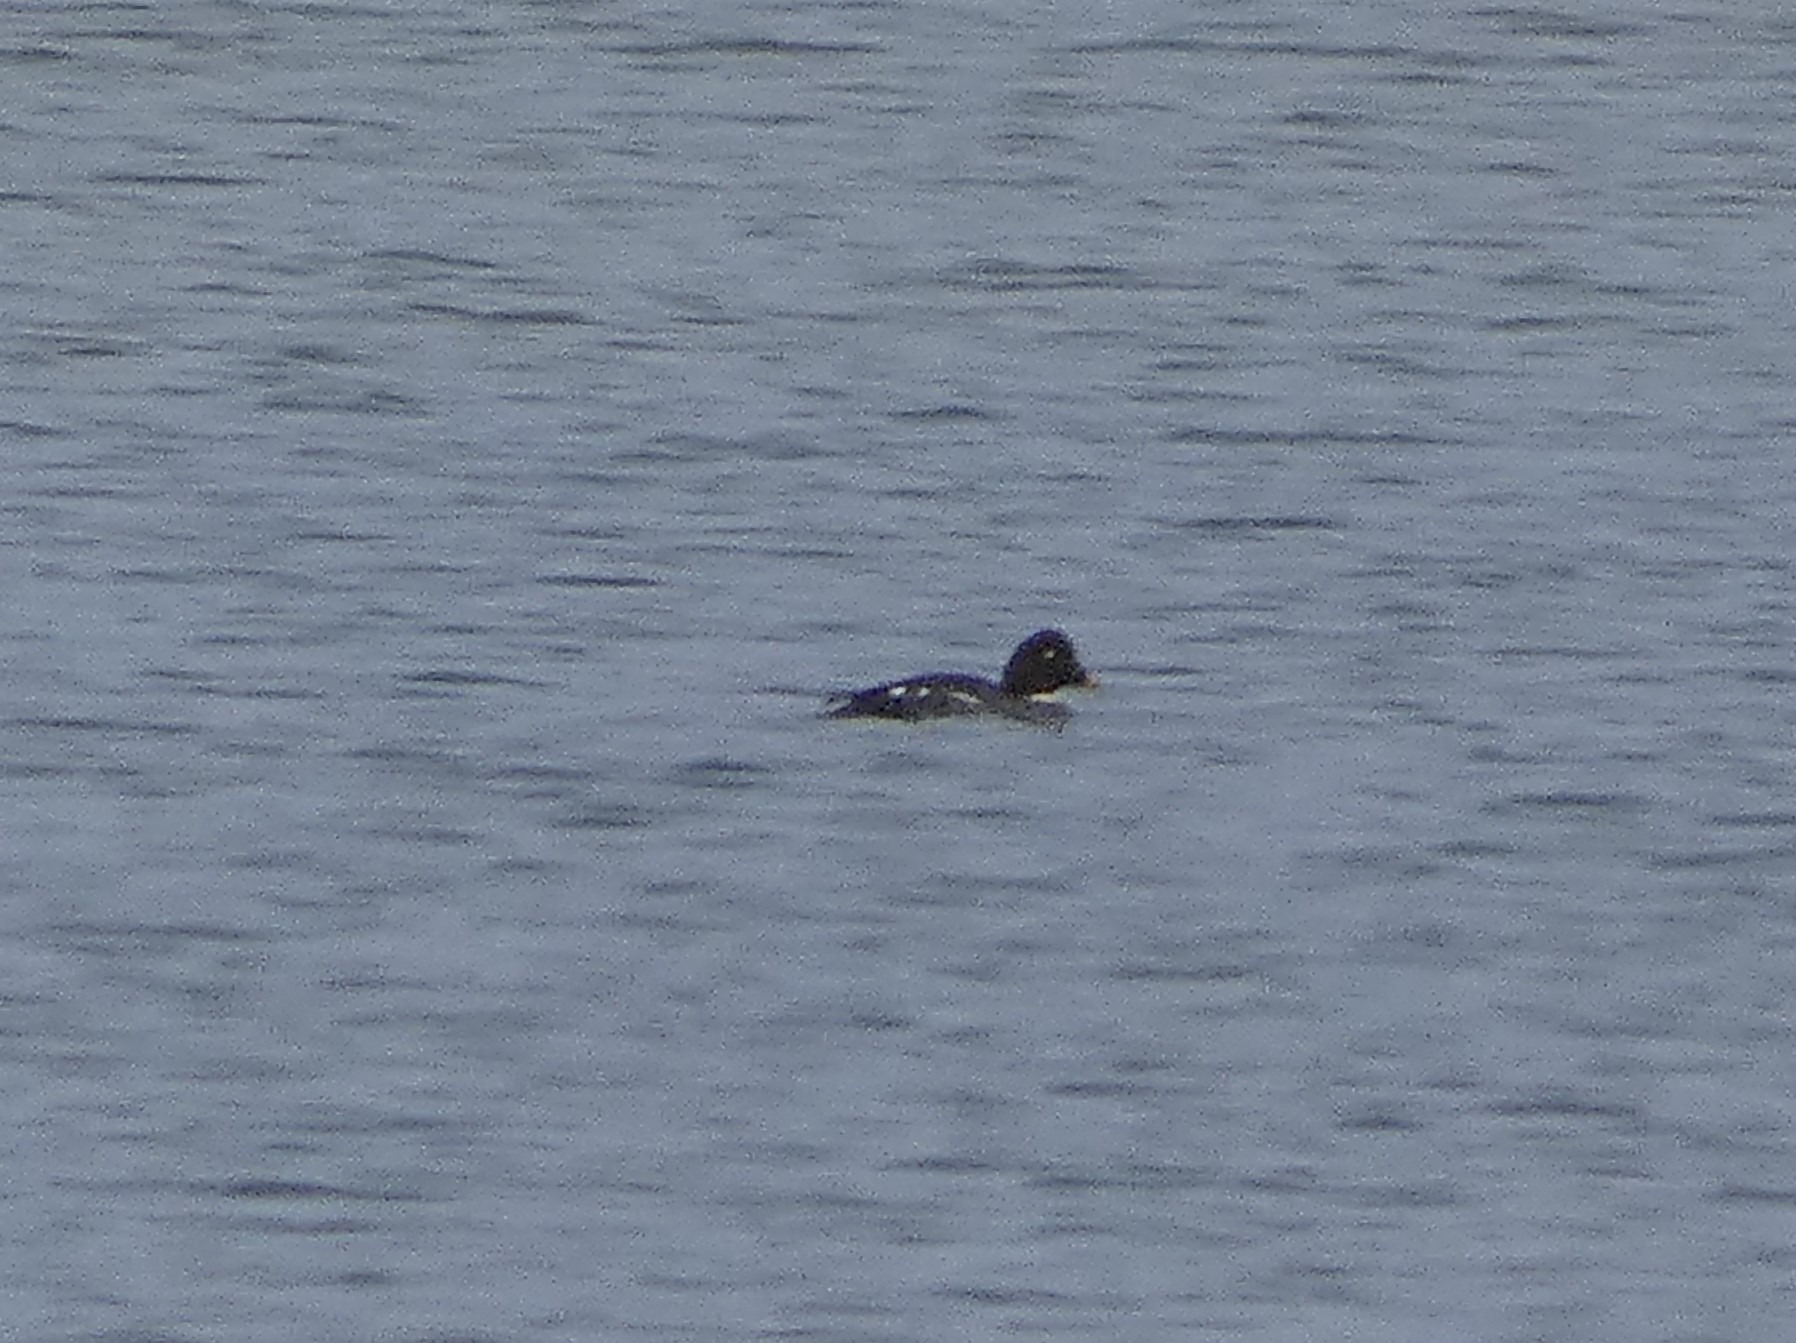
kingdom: Animalia
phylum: Chordata
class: Aves
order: Anseriformes
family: Anatidae
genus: Bucephala
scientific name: Bucephala clangula
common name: Hvinand
